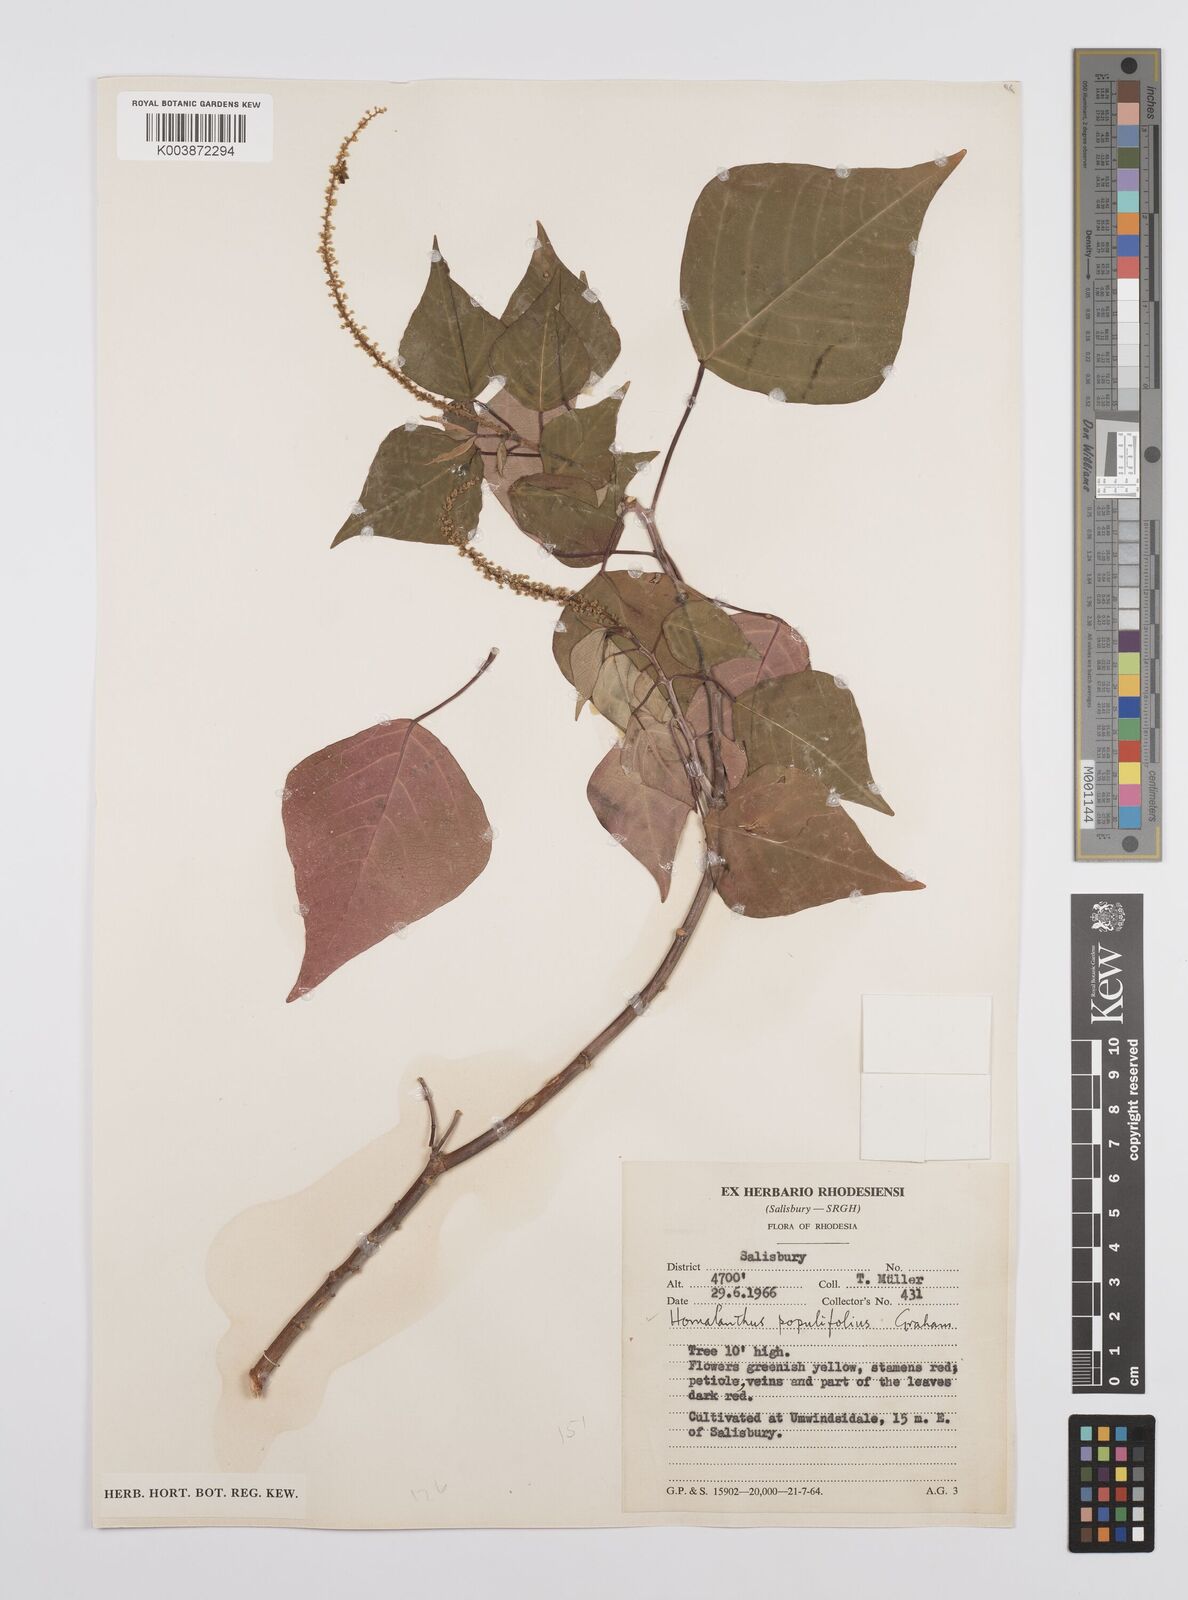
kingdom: Plantae
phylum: Tracheophyta
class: Magnoliopsida
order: Malpighiales
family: Euphorbiaceae
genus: Homalanthus
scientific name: Homalanthus populifolius
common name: Queensland poplar
